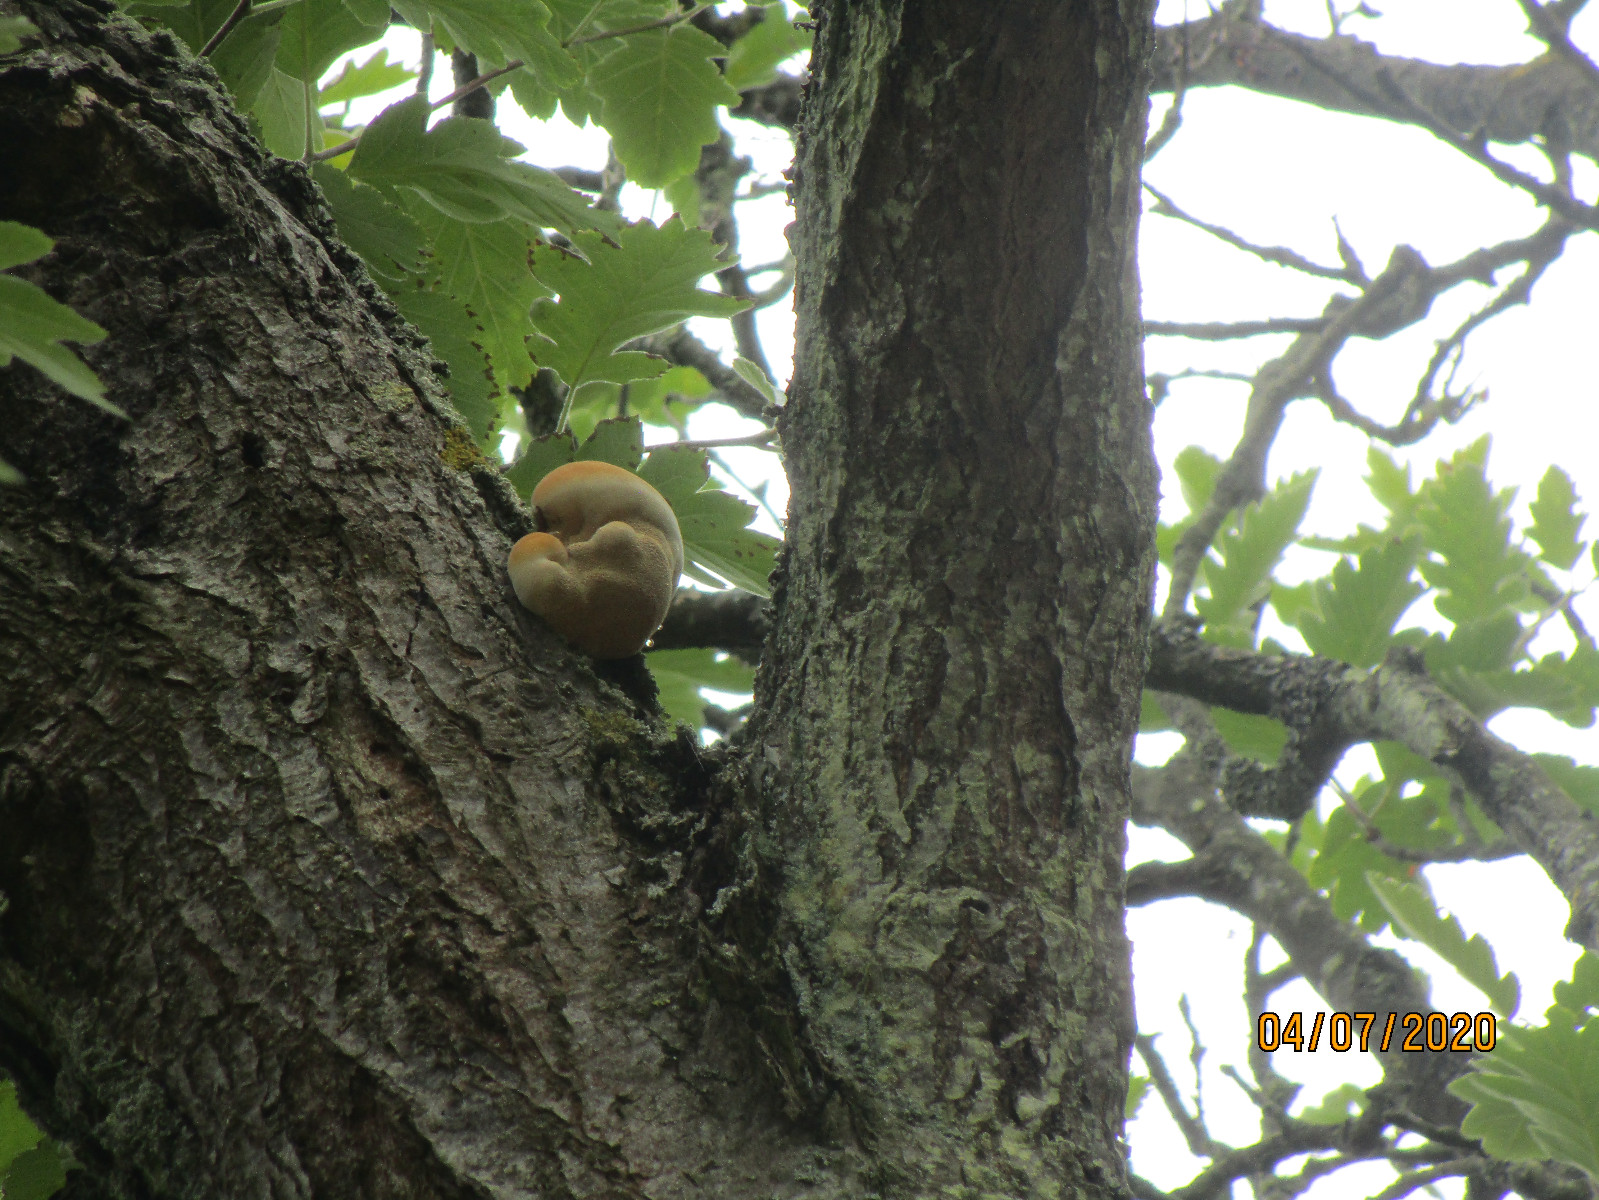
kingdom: Fungi
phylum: Basidiomycota
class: Agaricomycetes
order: Hymenochaetales
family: Hymenochaetaceae
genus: Inonotus
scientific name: Inonotus hispidus
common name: børstehåret spejlporesvamp
